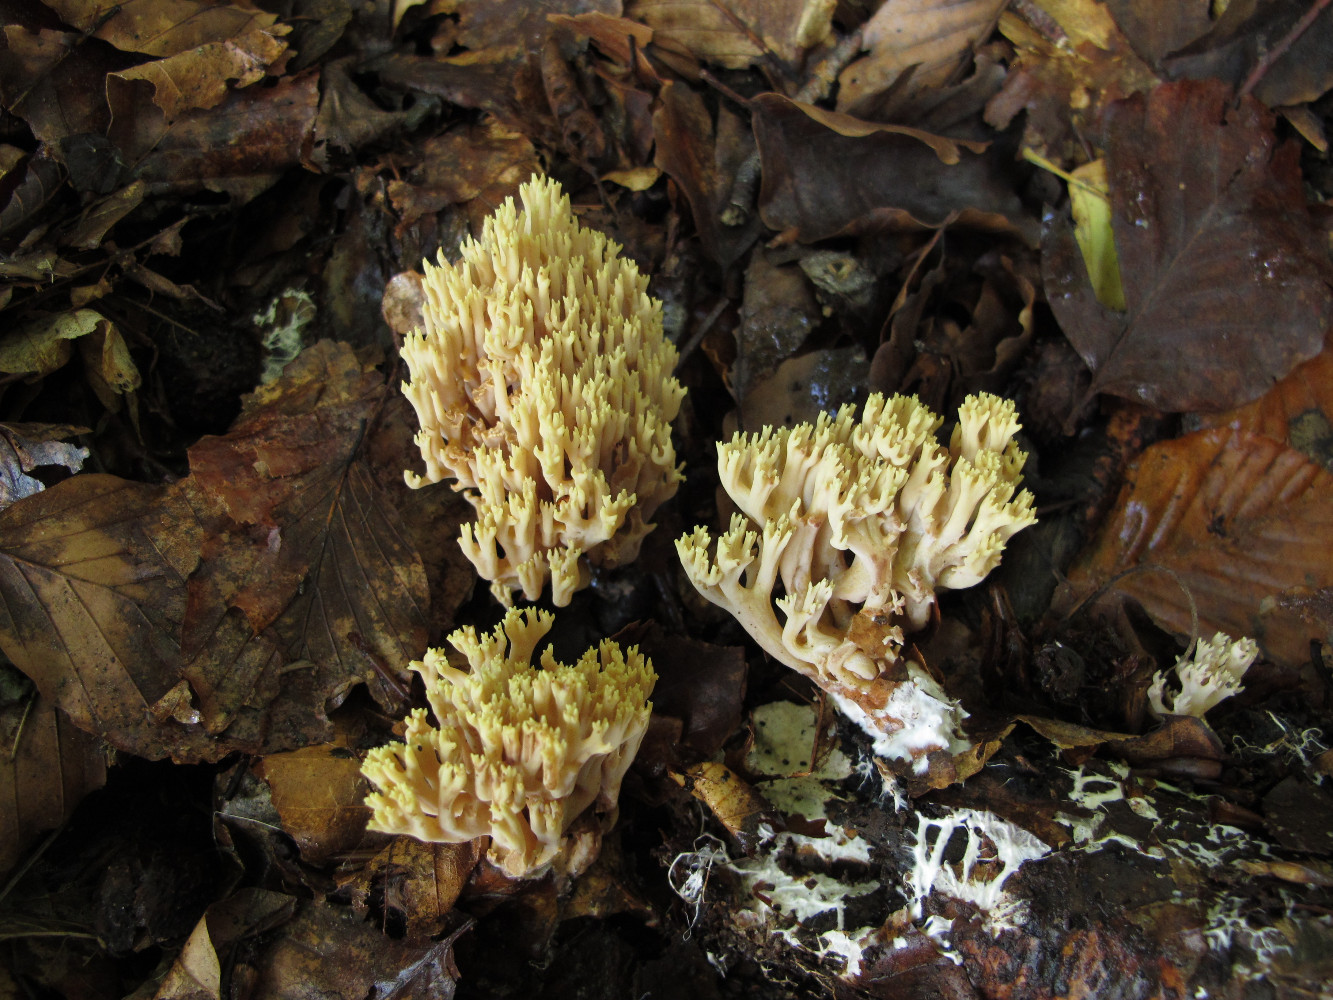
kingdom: Fungi
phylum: Basidiomycota
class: Agaricomycetes
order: Gomphales
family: Gomphaceae
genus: Ramaria
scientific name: Ramaria stricta
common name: rank koralsvamp
